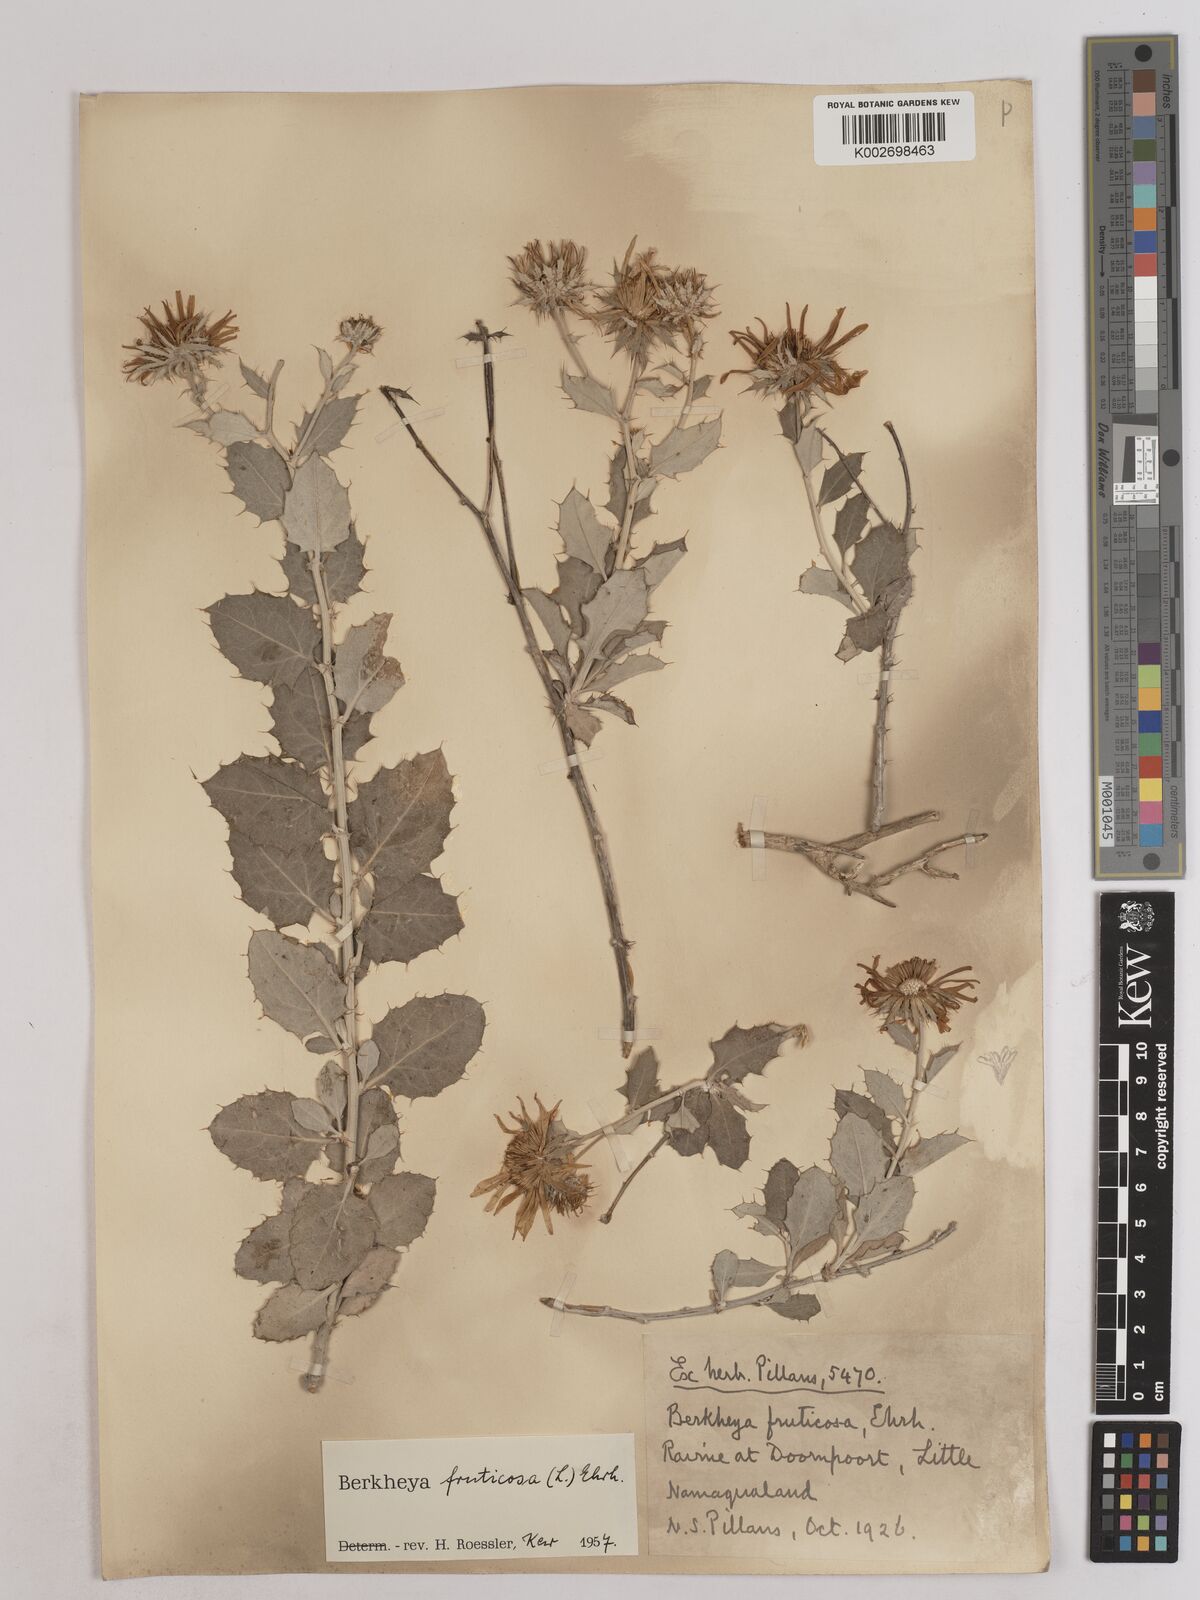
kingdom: Plantae
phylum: Tracheophyta
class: Magnoliopsida
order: Asterales
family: Asteraceae
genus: Berkheya
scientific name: Berkheya fruticosa
